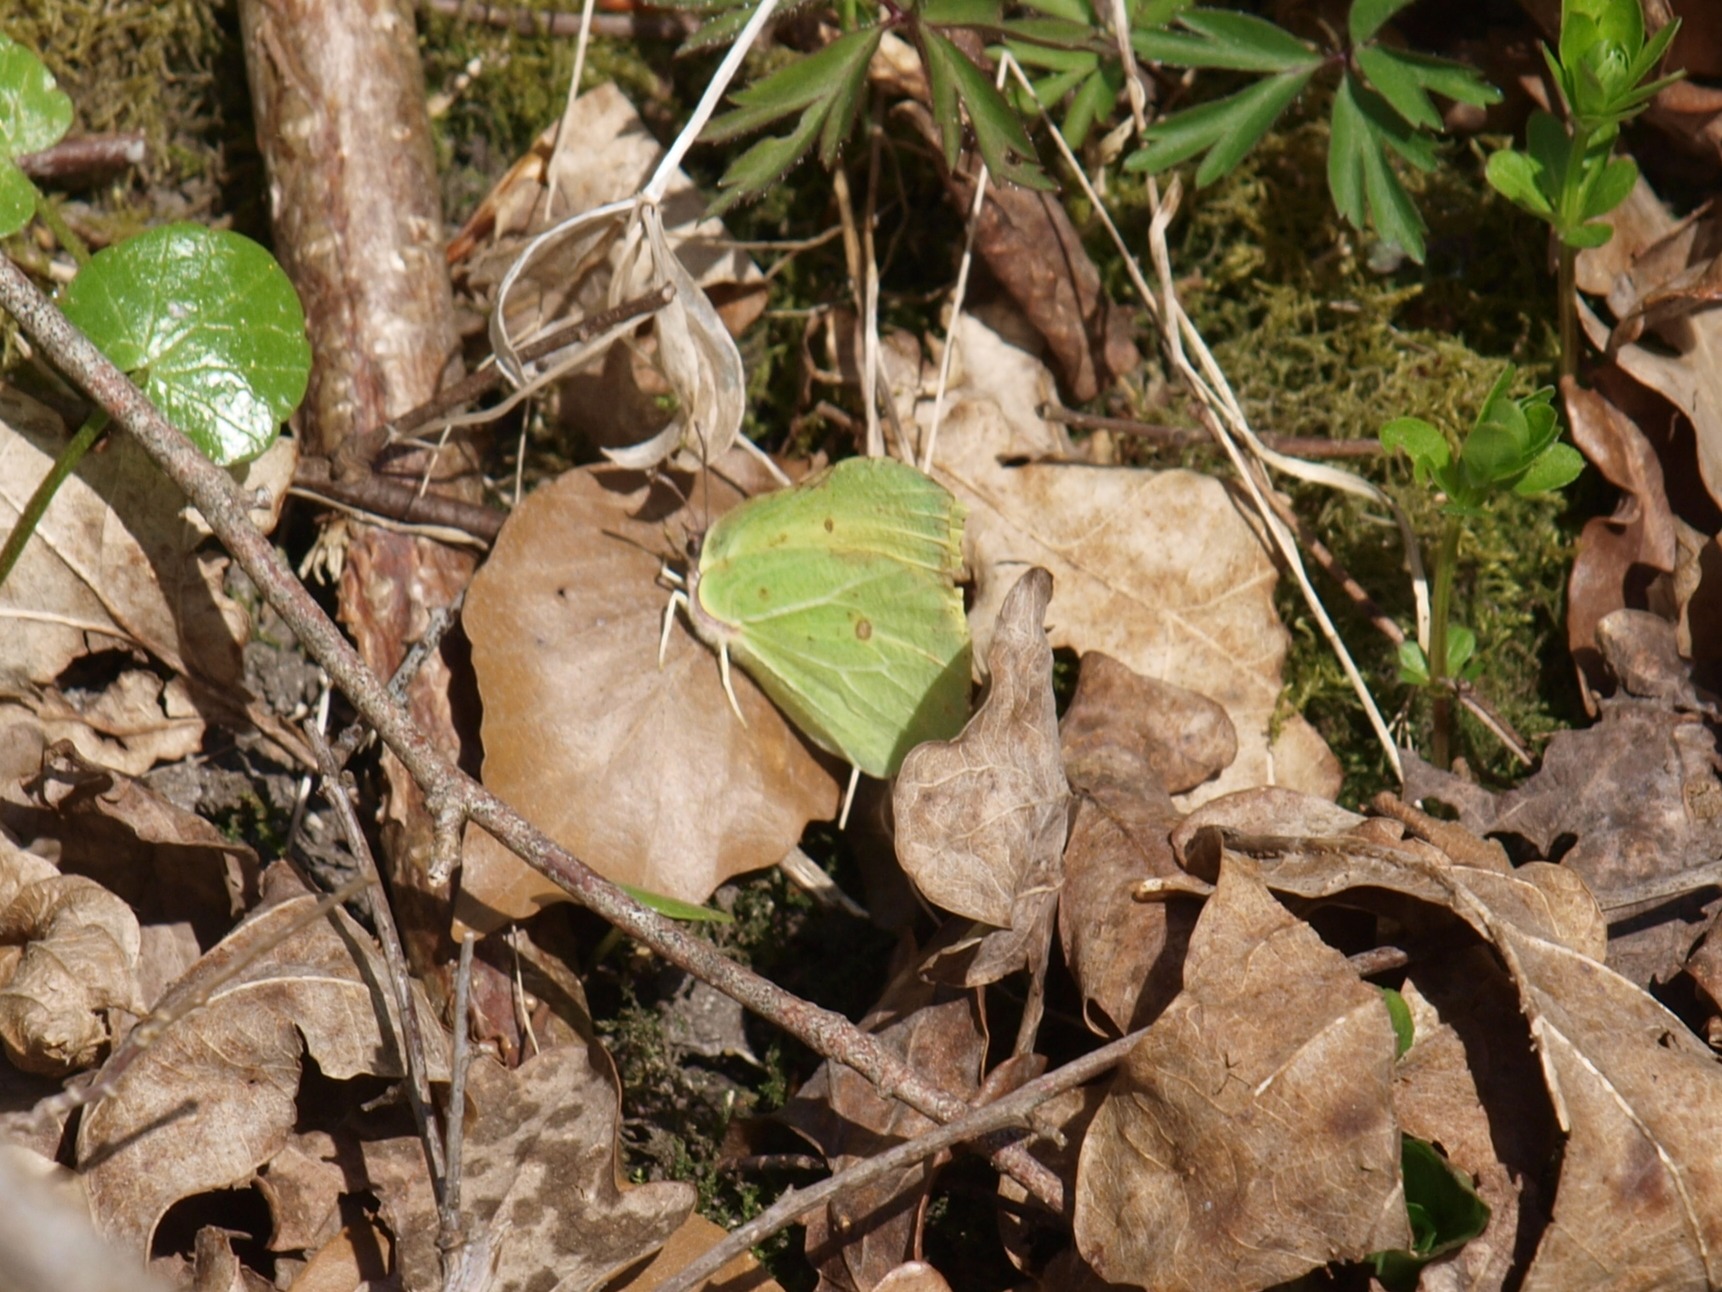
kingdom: Animalia
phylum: Arthropoda
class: Insecta
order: Lepidoptera
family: Pieridae
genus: Gonepteryx
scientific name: Gonepteryx rhamni
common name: Citronsommerfugl
